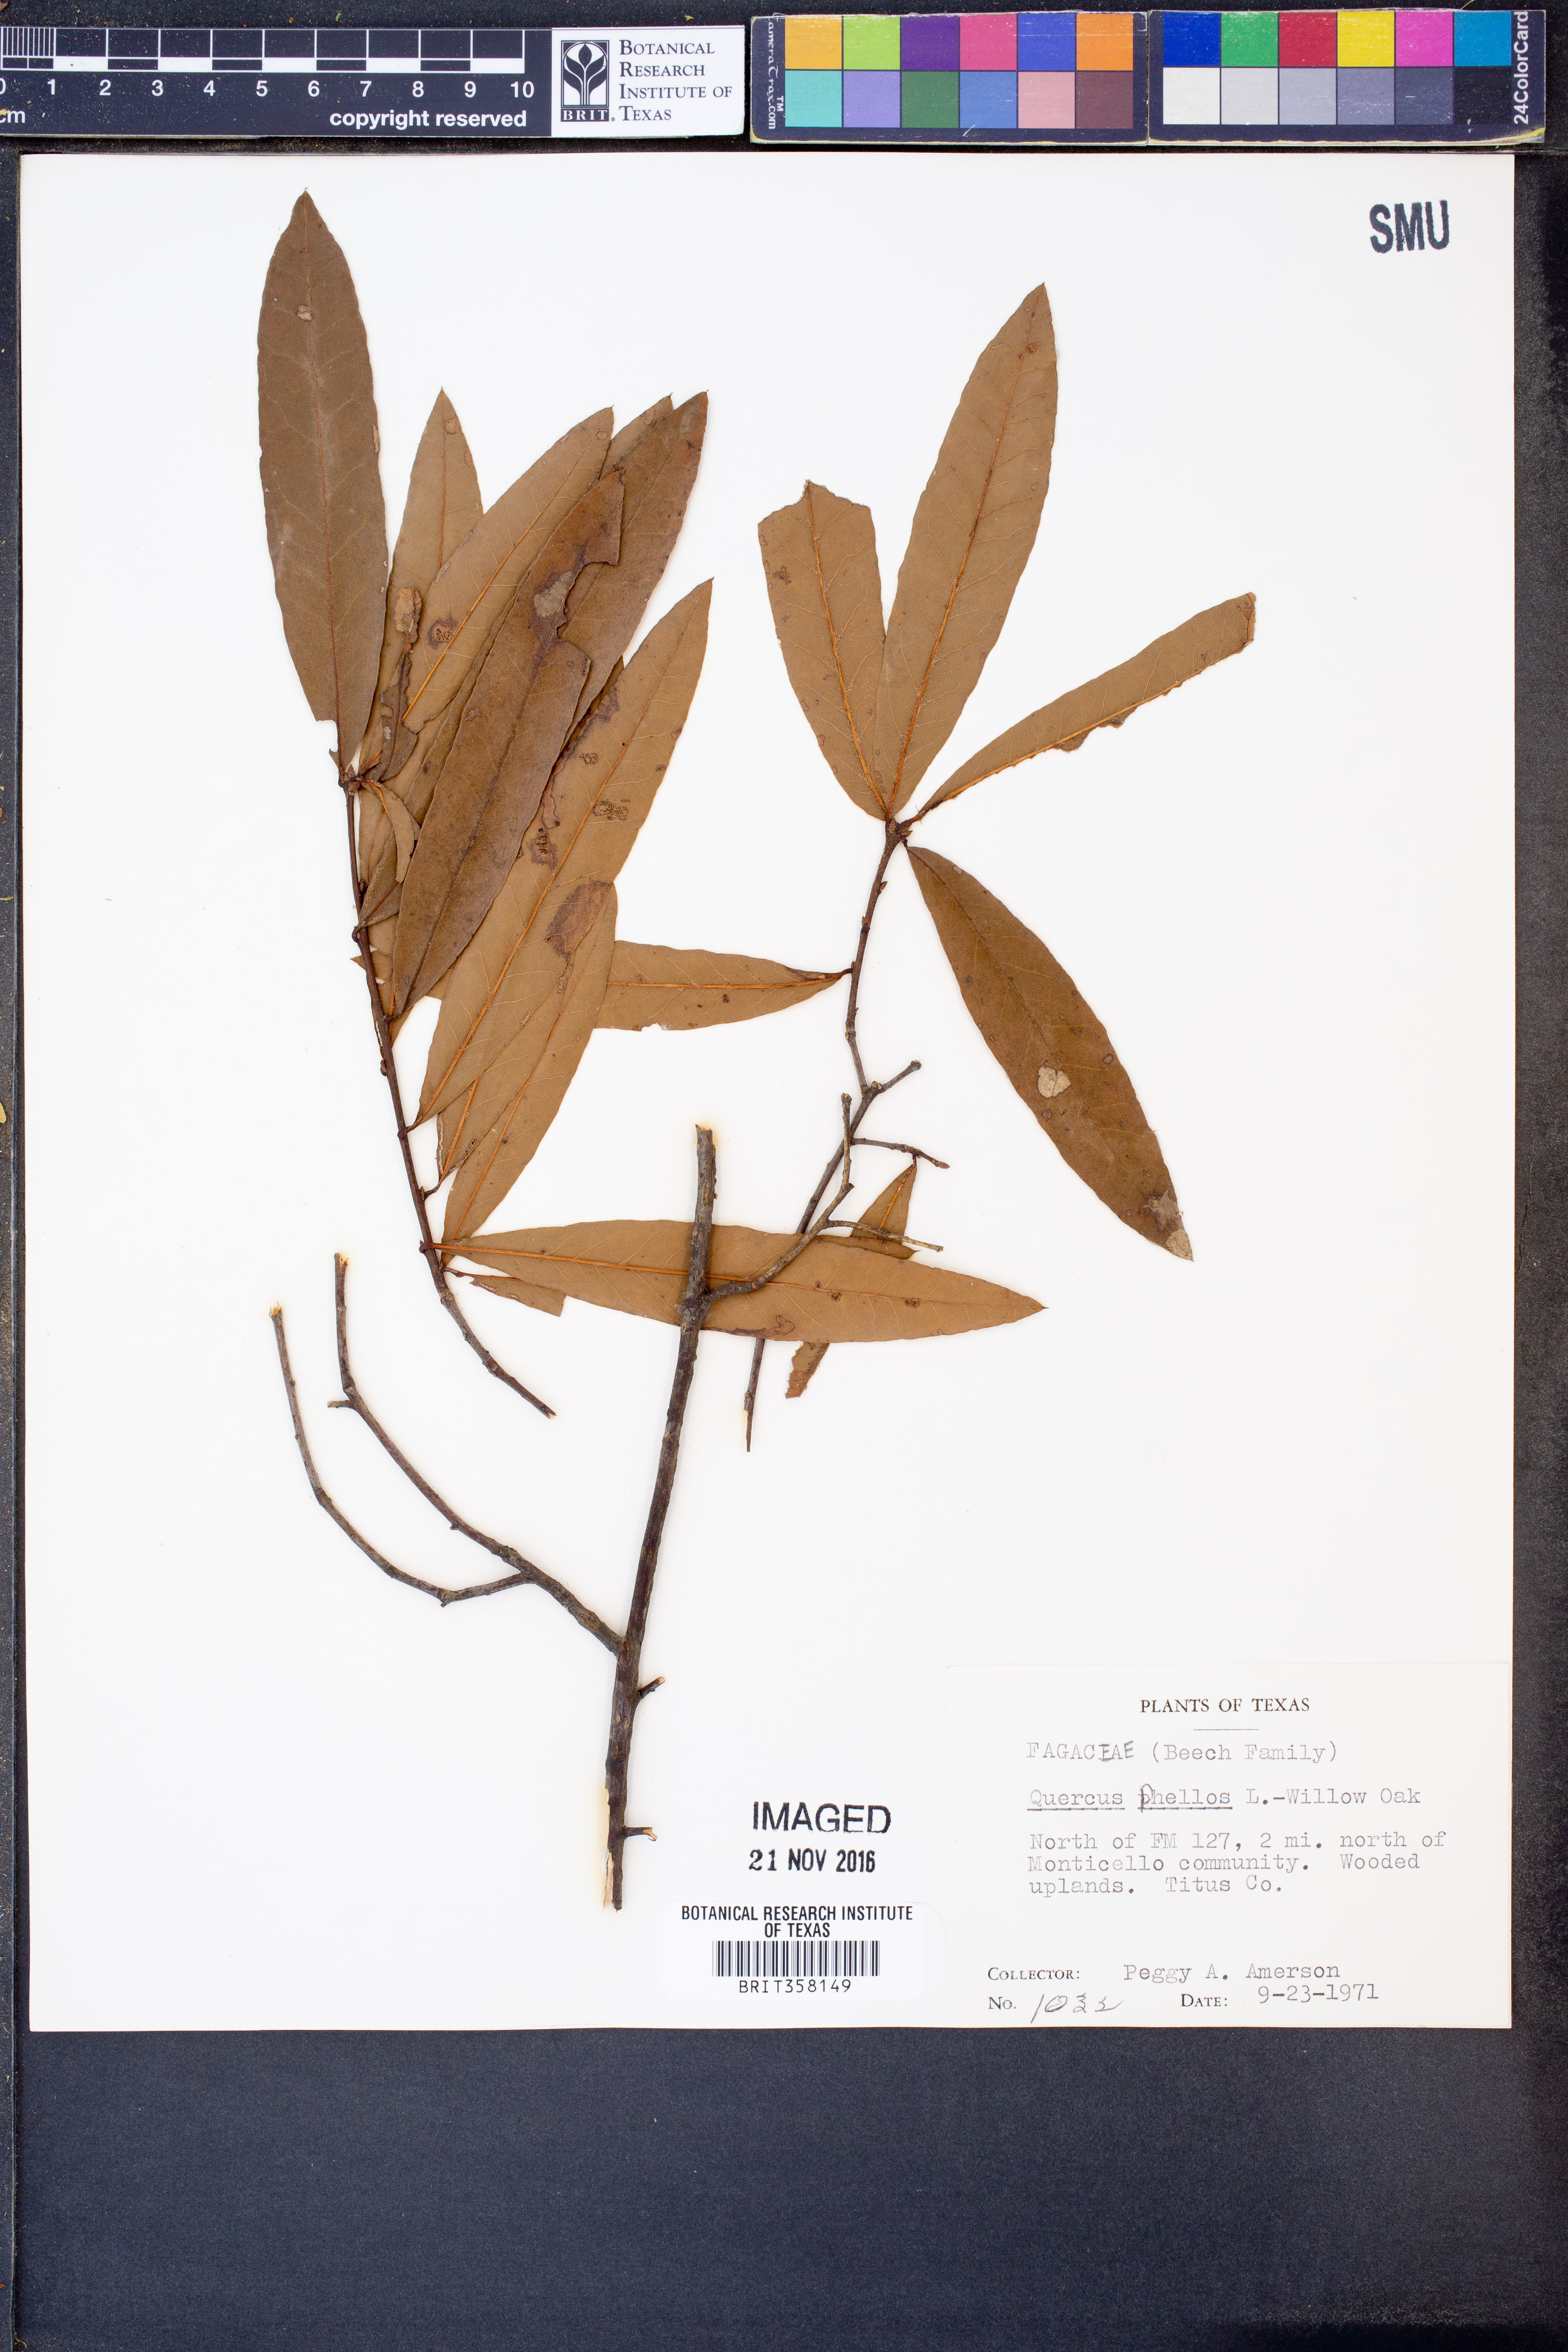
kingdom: Plantae
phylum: Tracheophyta
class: Magnoliopsida
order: Fagales
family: Fagaceae
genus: Quercus
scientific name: Quercus phellos
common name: Willow oak
